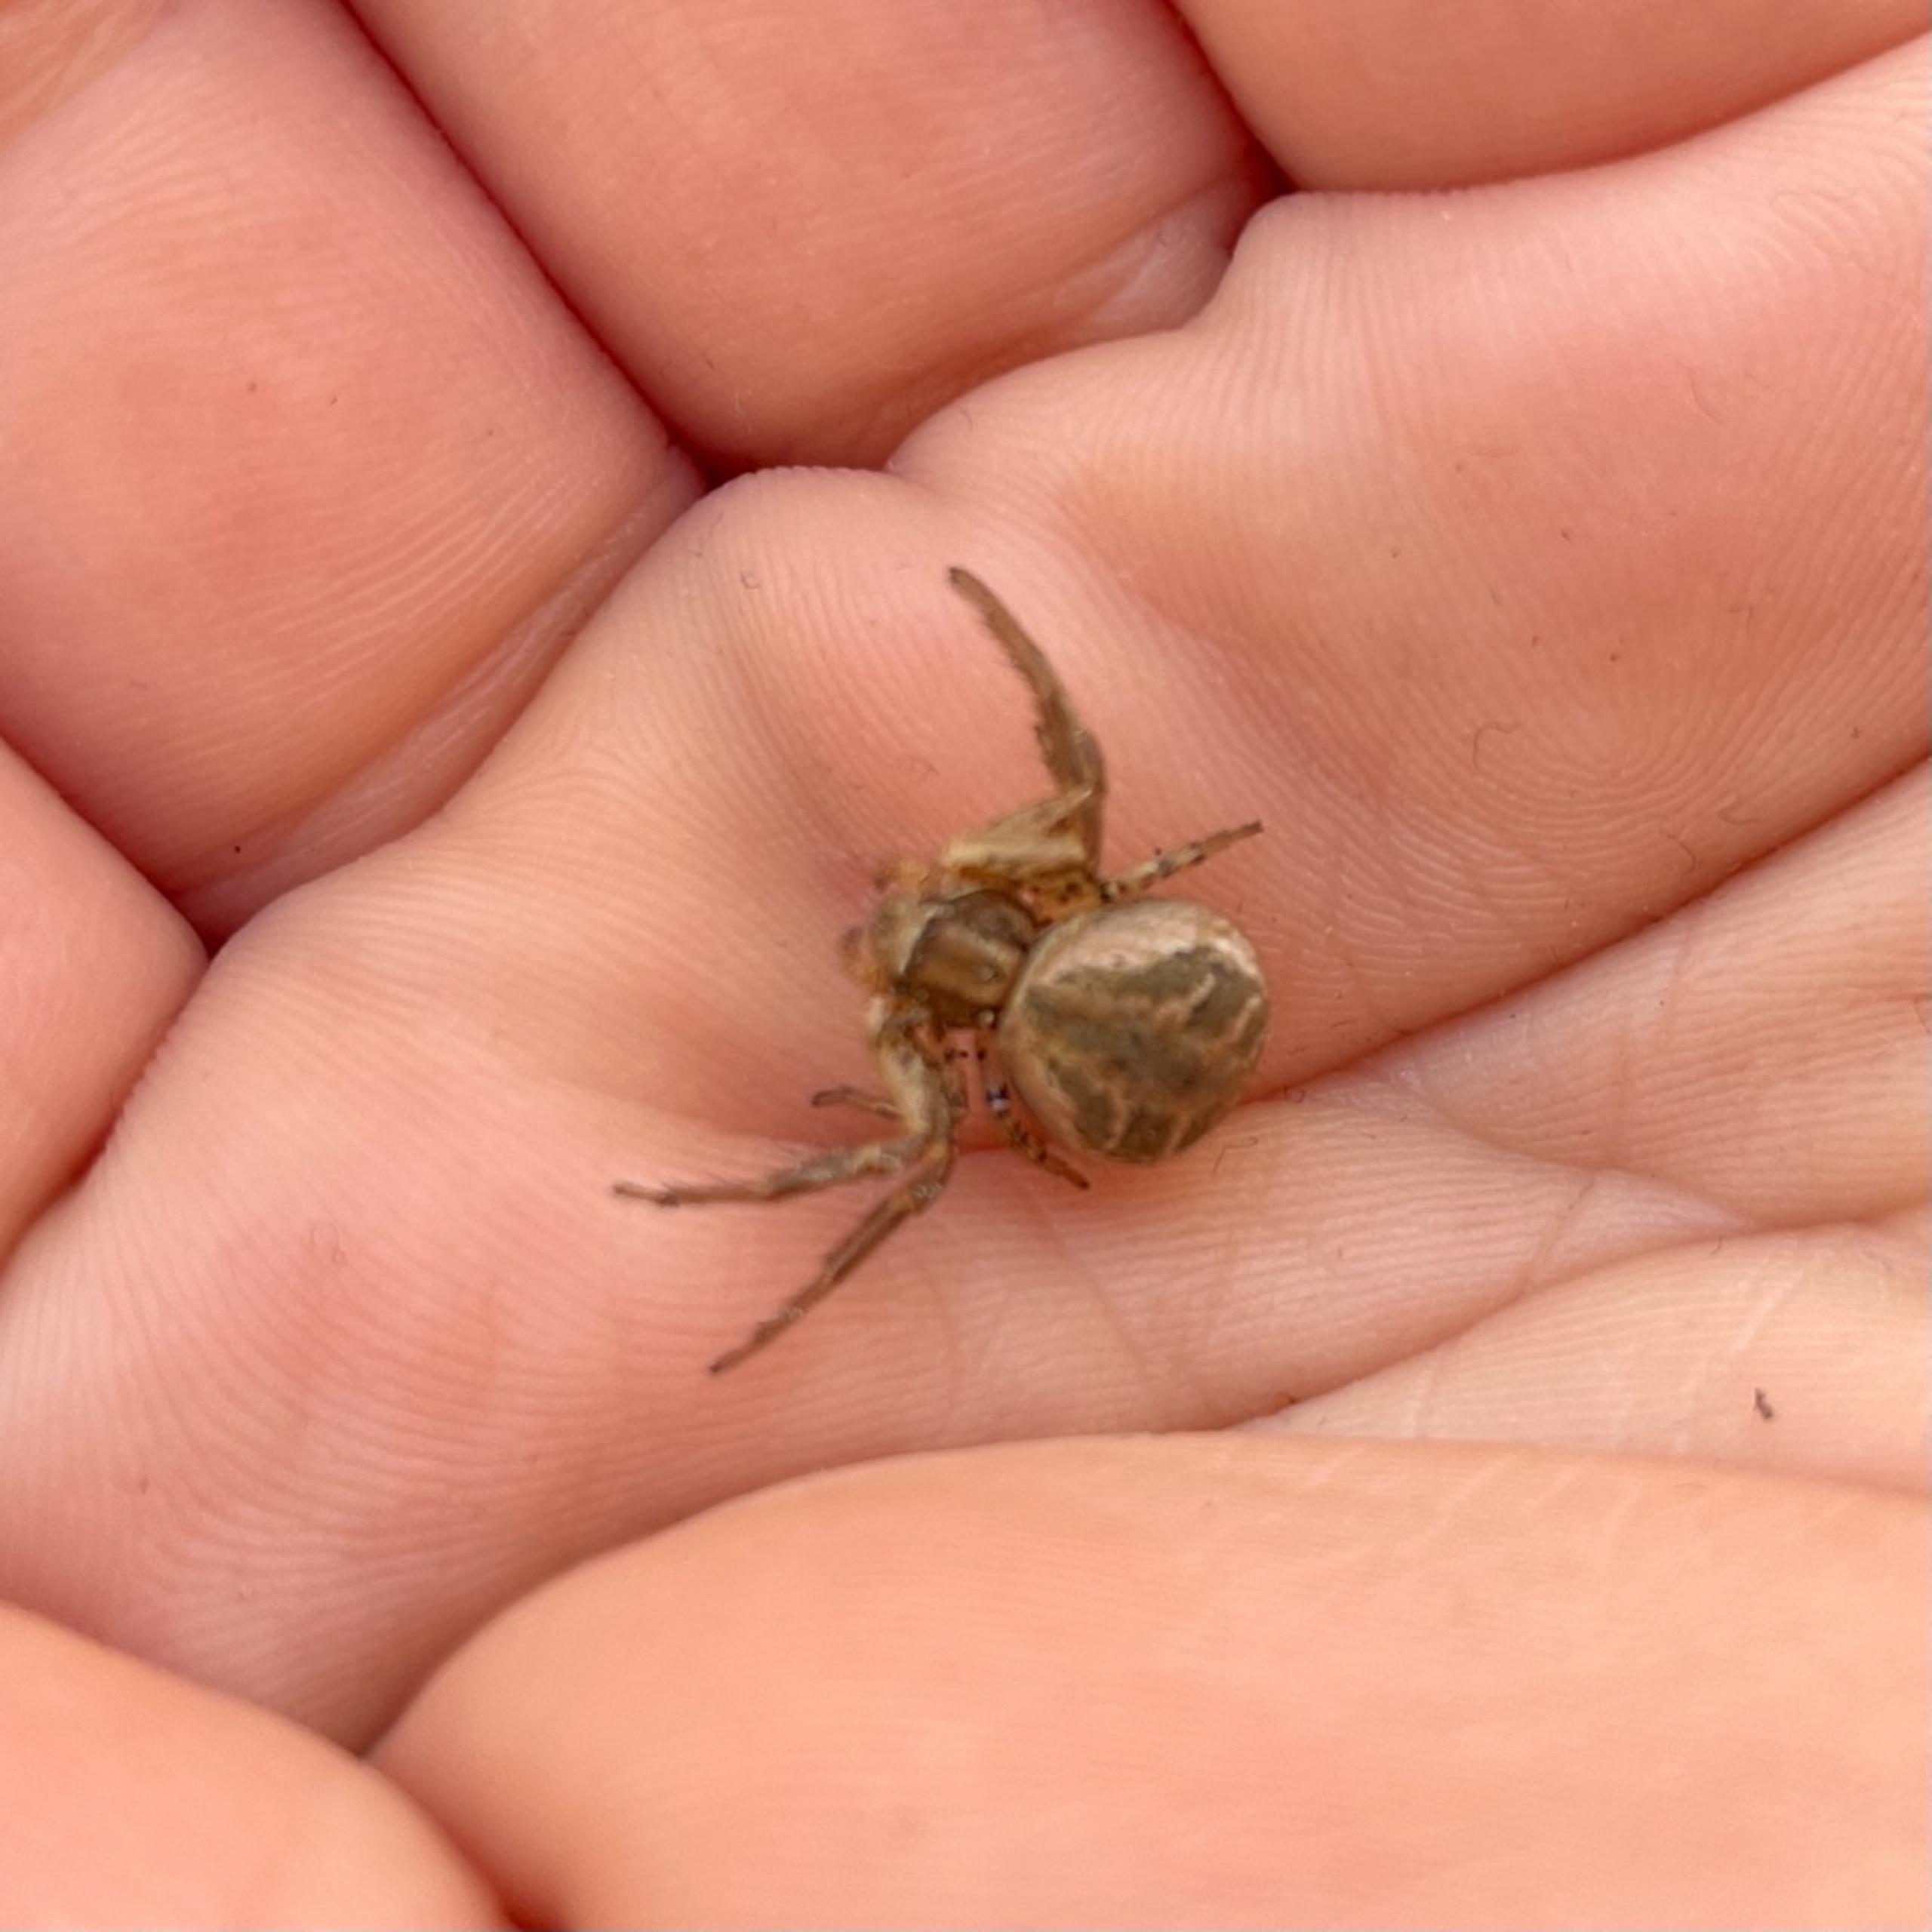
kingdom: Animalia
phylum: Arthropoda
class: Arachnida
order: Araneae
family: Thomisidae
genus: Xysticus
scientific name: Xysticus
